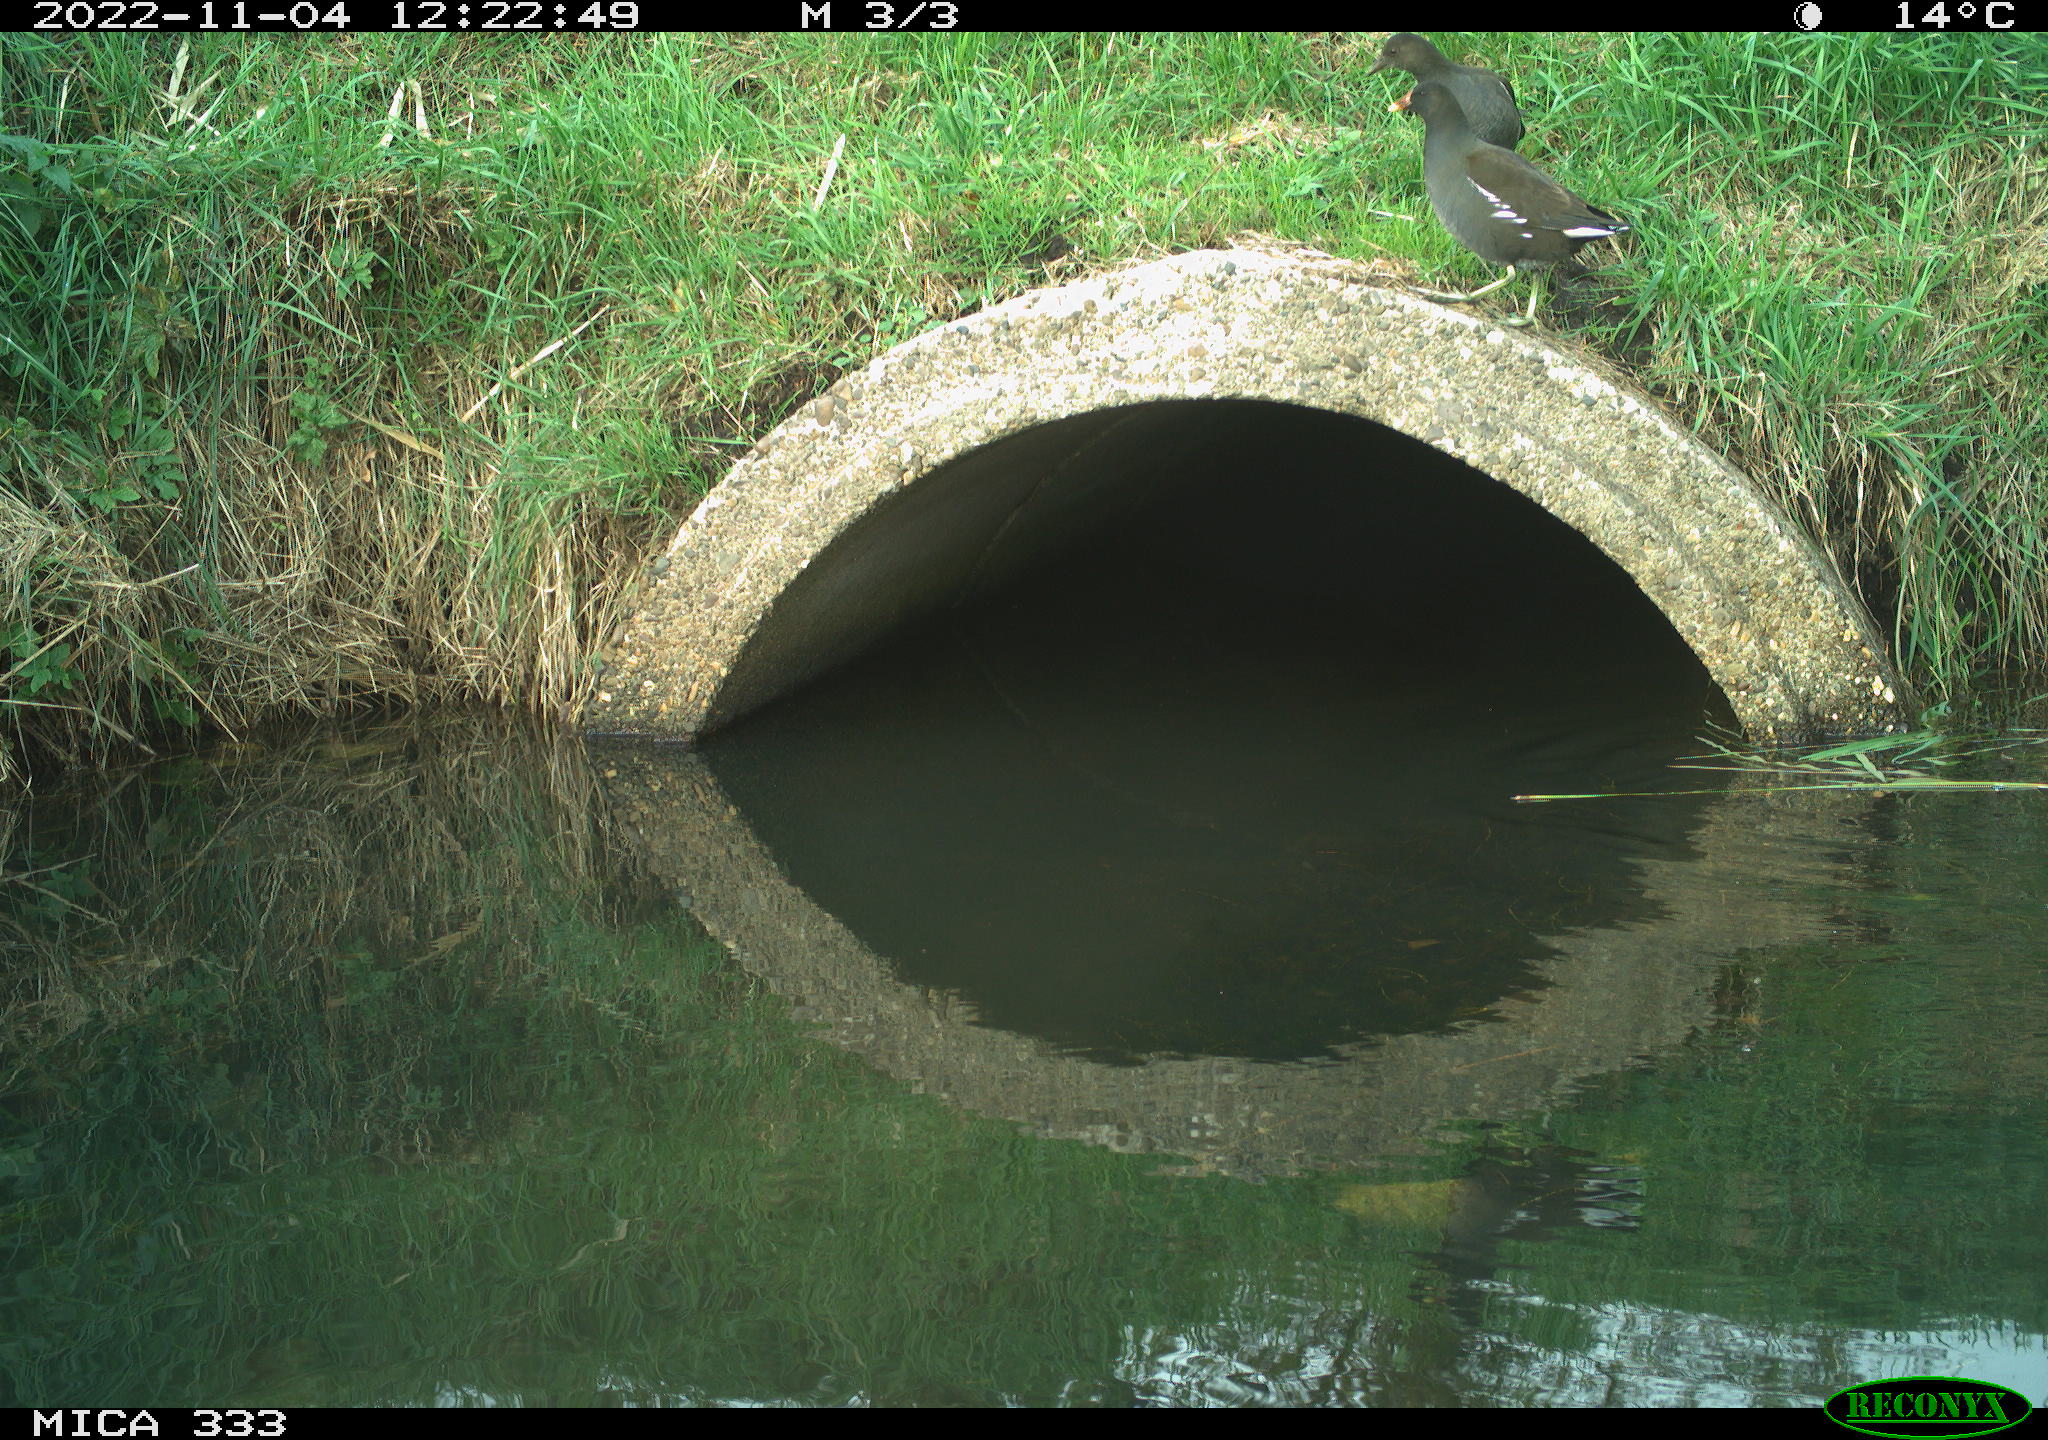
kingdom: Animalia
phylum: Chordata
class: Aves
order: Gruiformes
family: Rallidae
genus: Gallinula
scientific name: Gallinula chloropus
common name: Common moorhen
